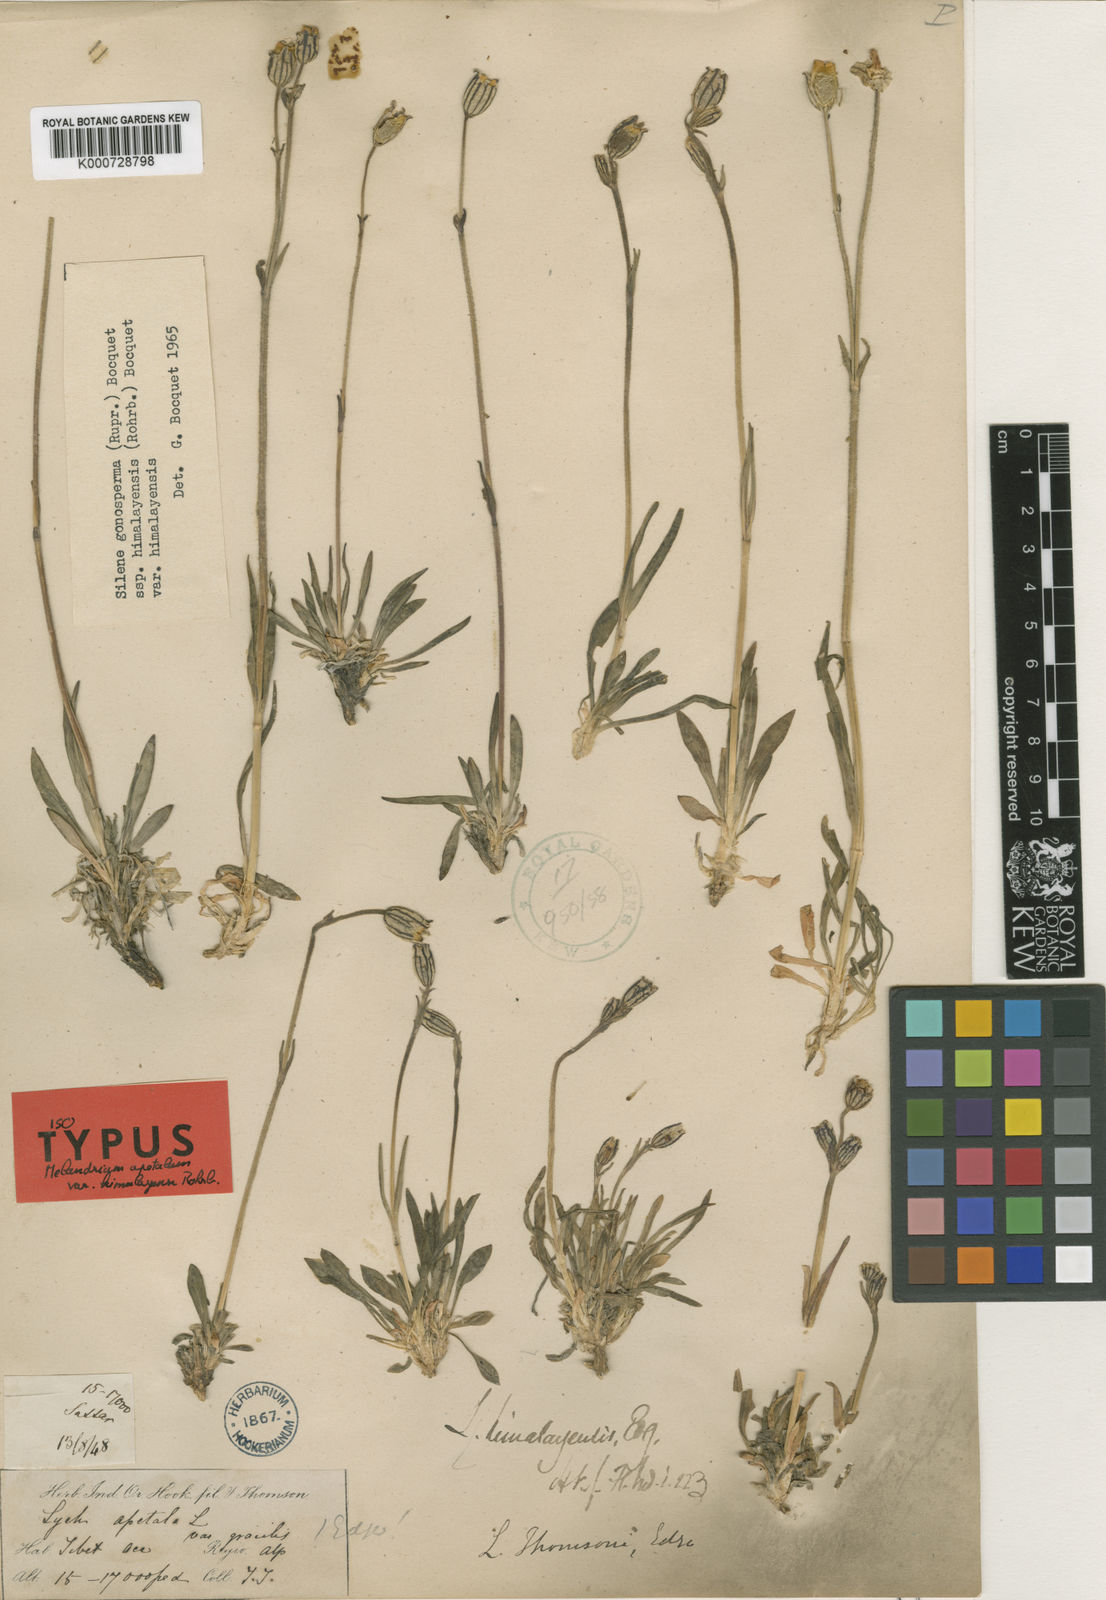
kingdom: Plantae
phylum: Tracheophyta
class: Magnoliopsida
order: Caryophyllales
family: Caryophyllaceae
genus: Silene
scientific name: Silene gonosperma
